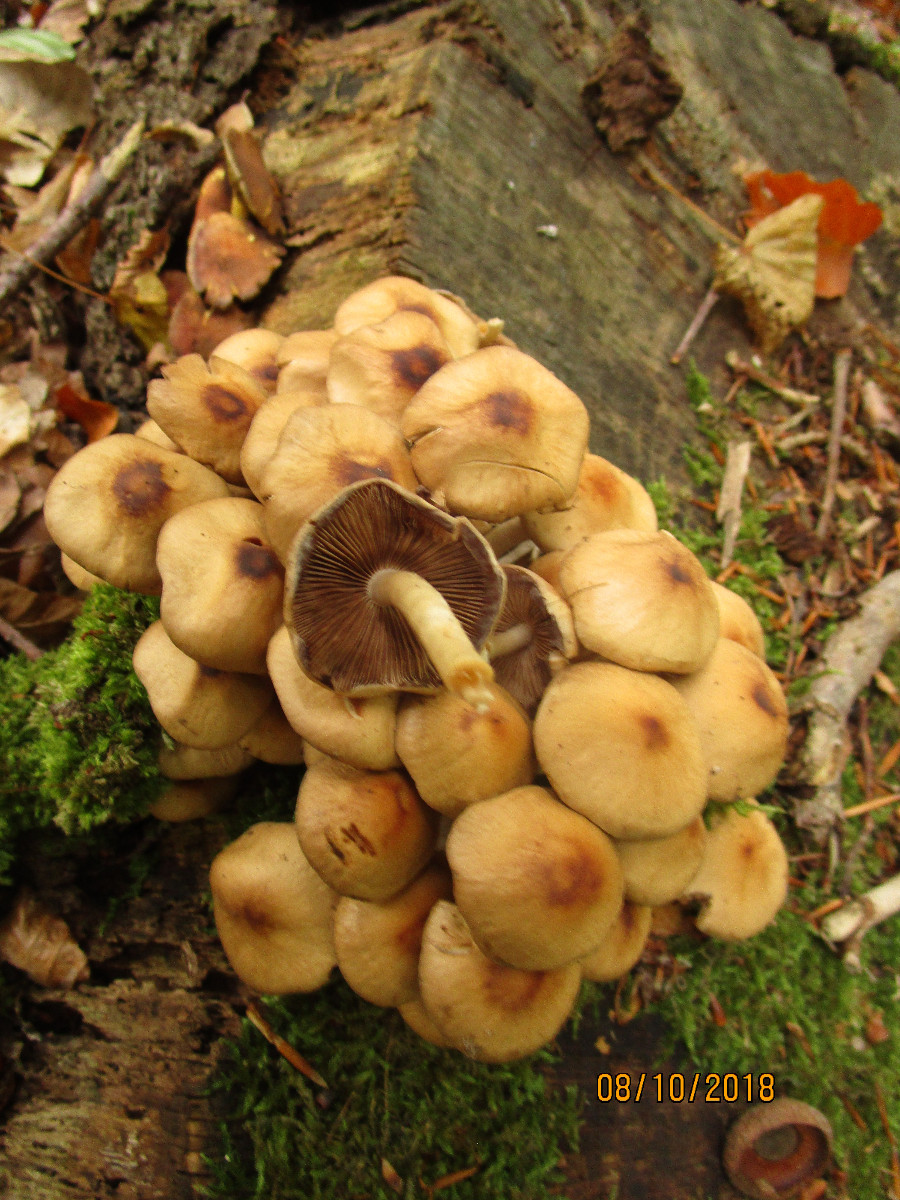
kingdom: Fungi
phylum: Basidiomycota
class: Agaricomycetes
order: Agaricales
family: Psathyrellaceae
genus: Psathyrella
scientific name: Psathyrella piluliformis
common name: lysstokket mørkhat
